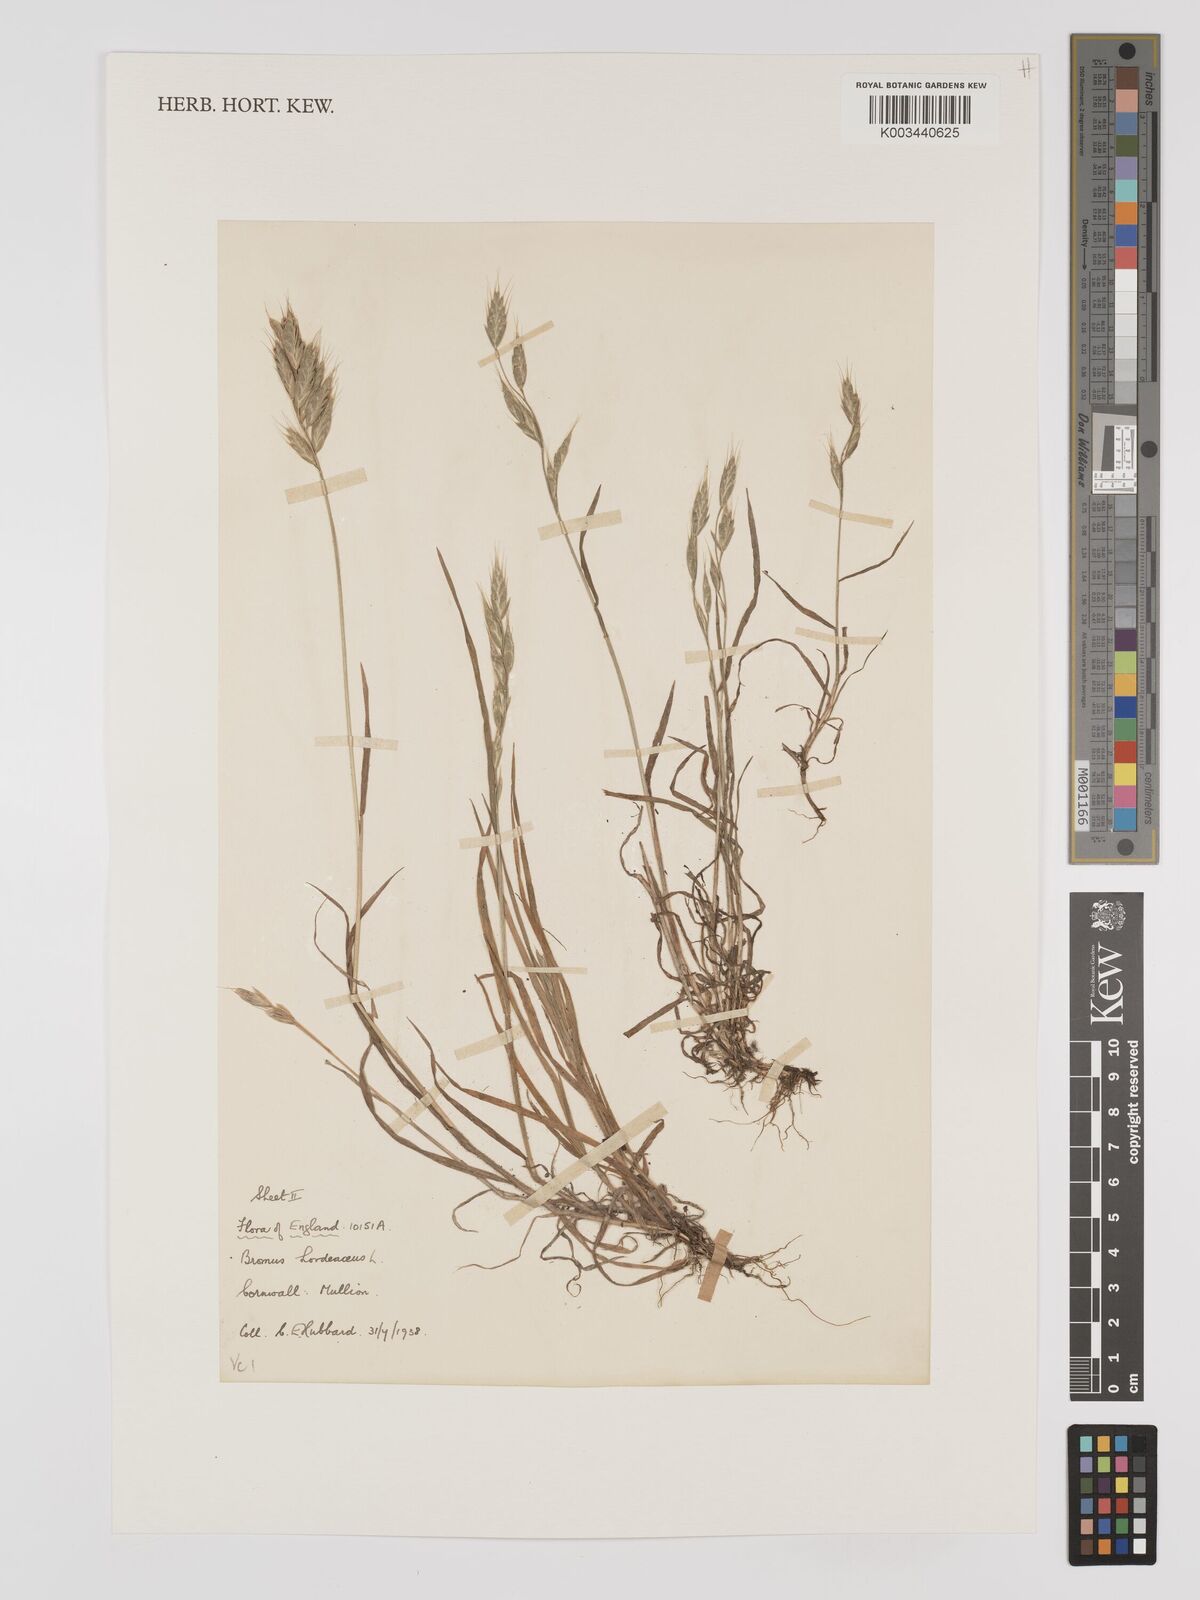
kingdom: Plantae
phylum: Tracheophyta
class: Liliopsida
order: Poales
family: Poaceae
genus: Bromus
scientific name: Bromus hordeaceus
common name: Soft brome
